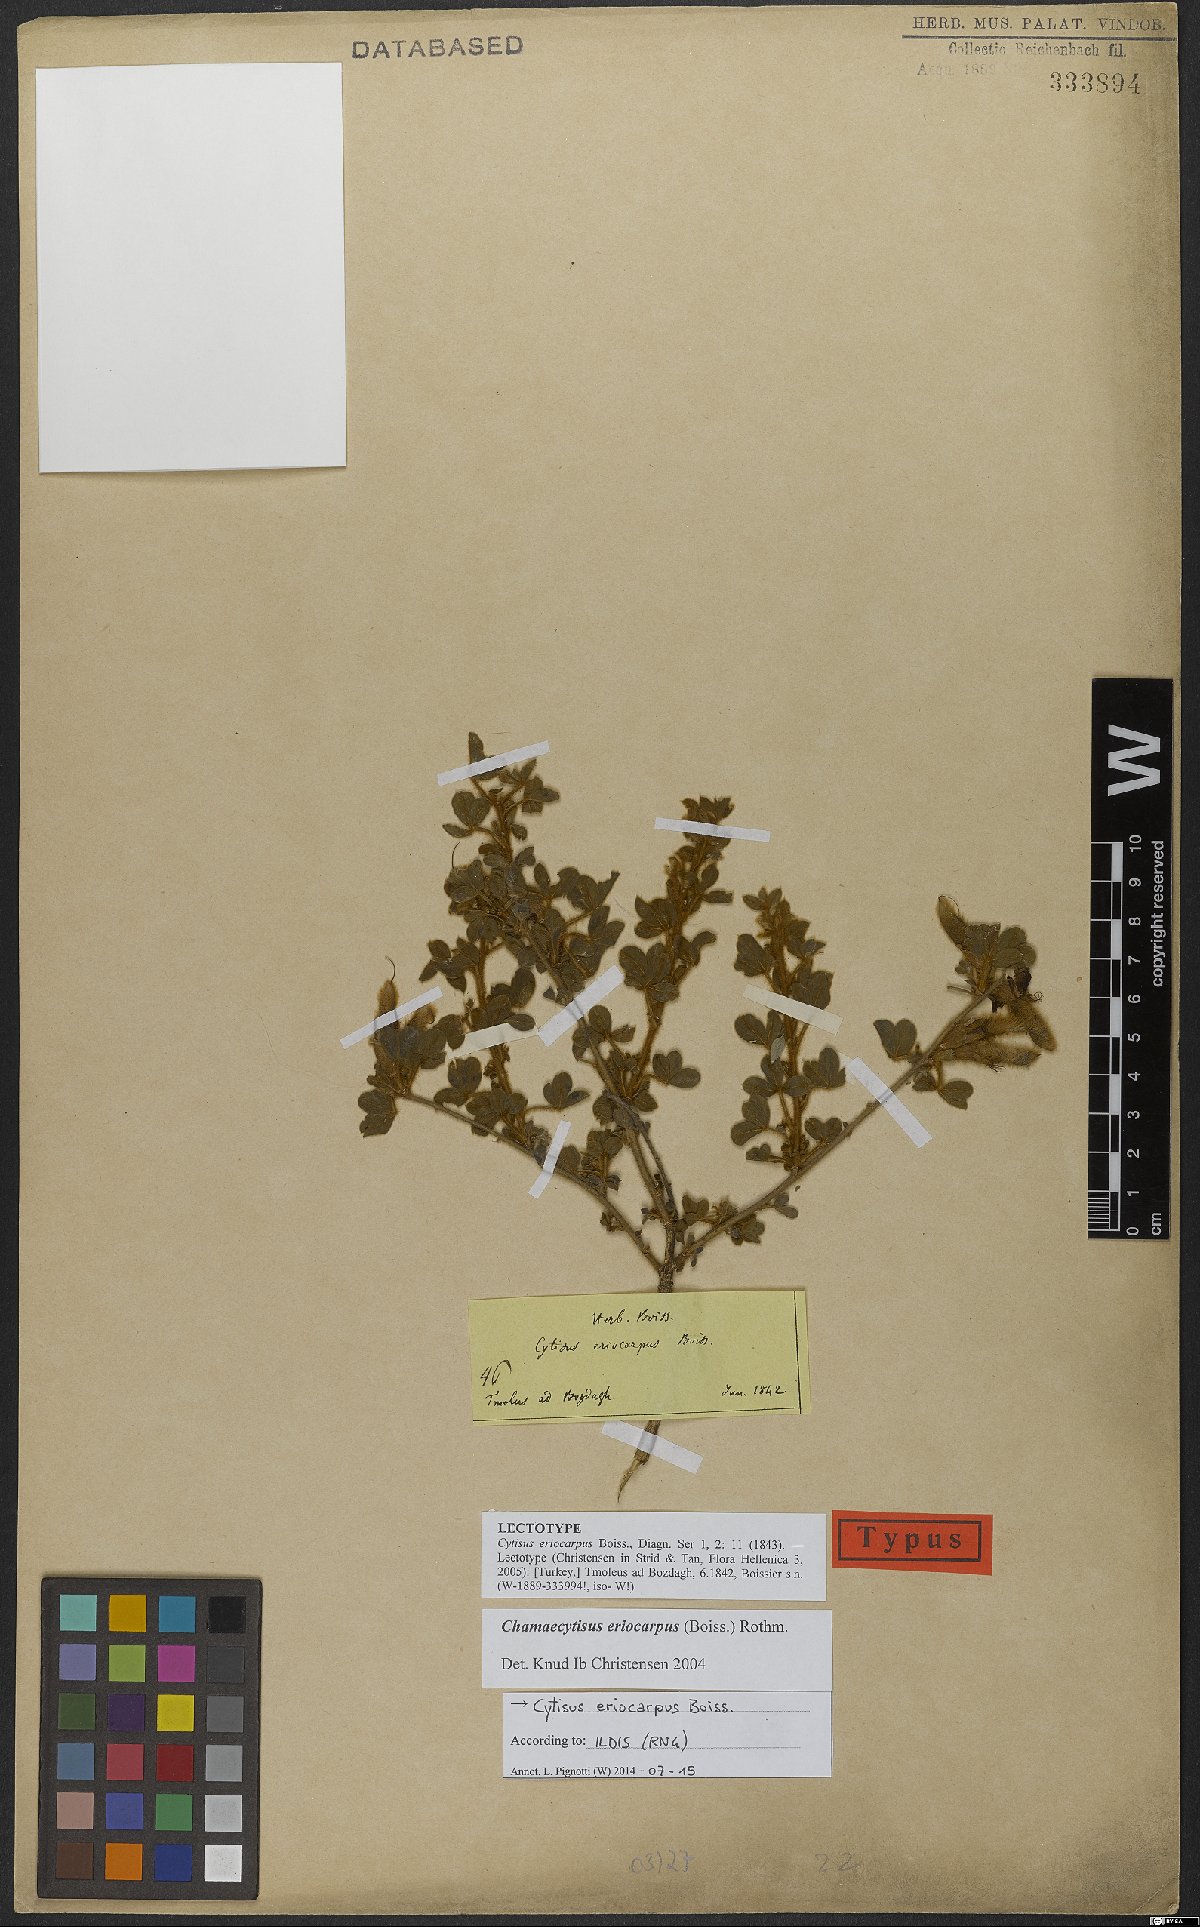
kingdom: Plantae
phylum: Tracheophyta
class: Magnoliopsida
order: Fabales
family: Fabaceae
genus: Chamaecytisus
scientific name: Chamaecytisus eriocarpus
